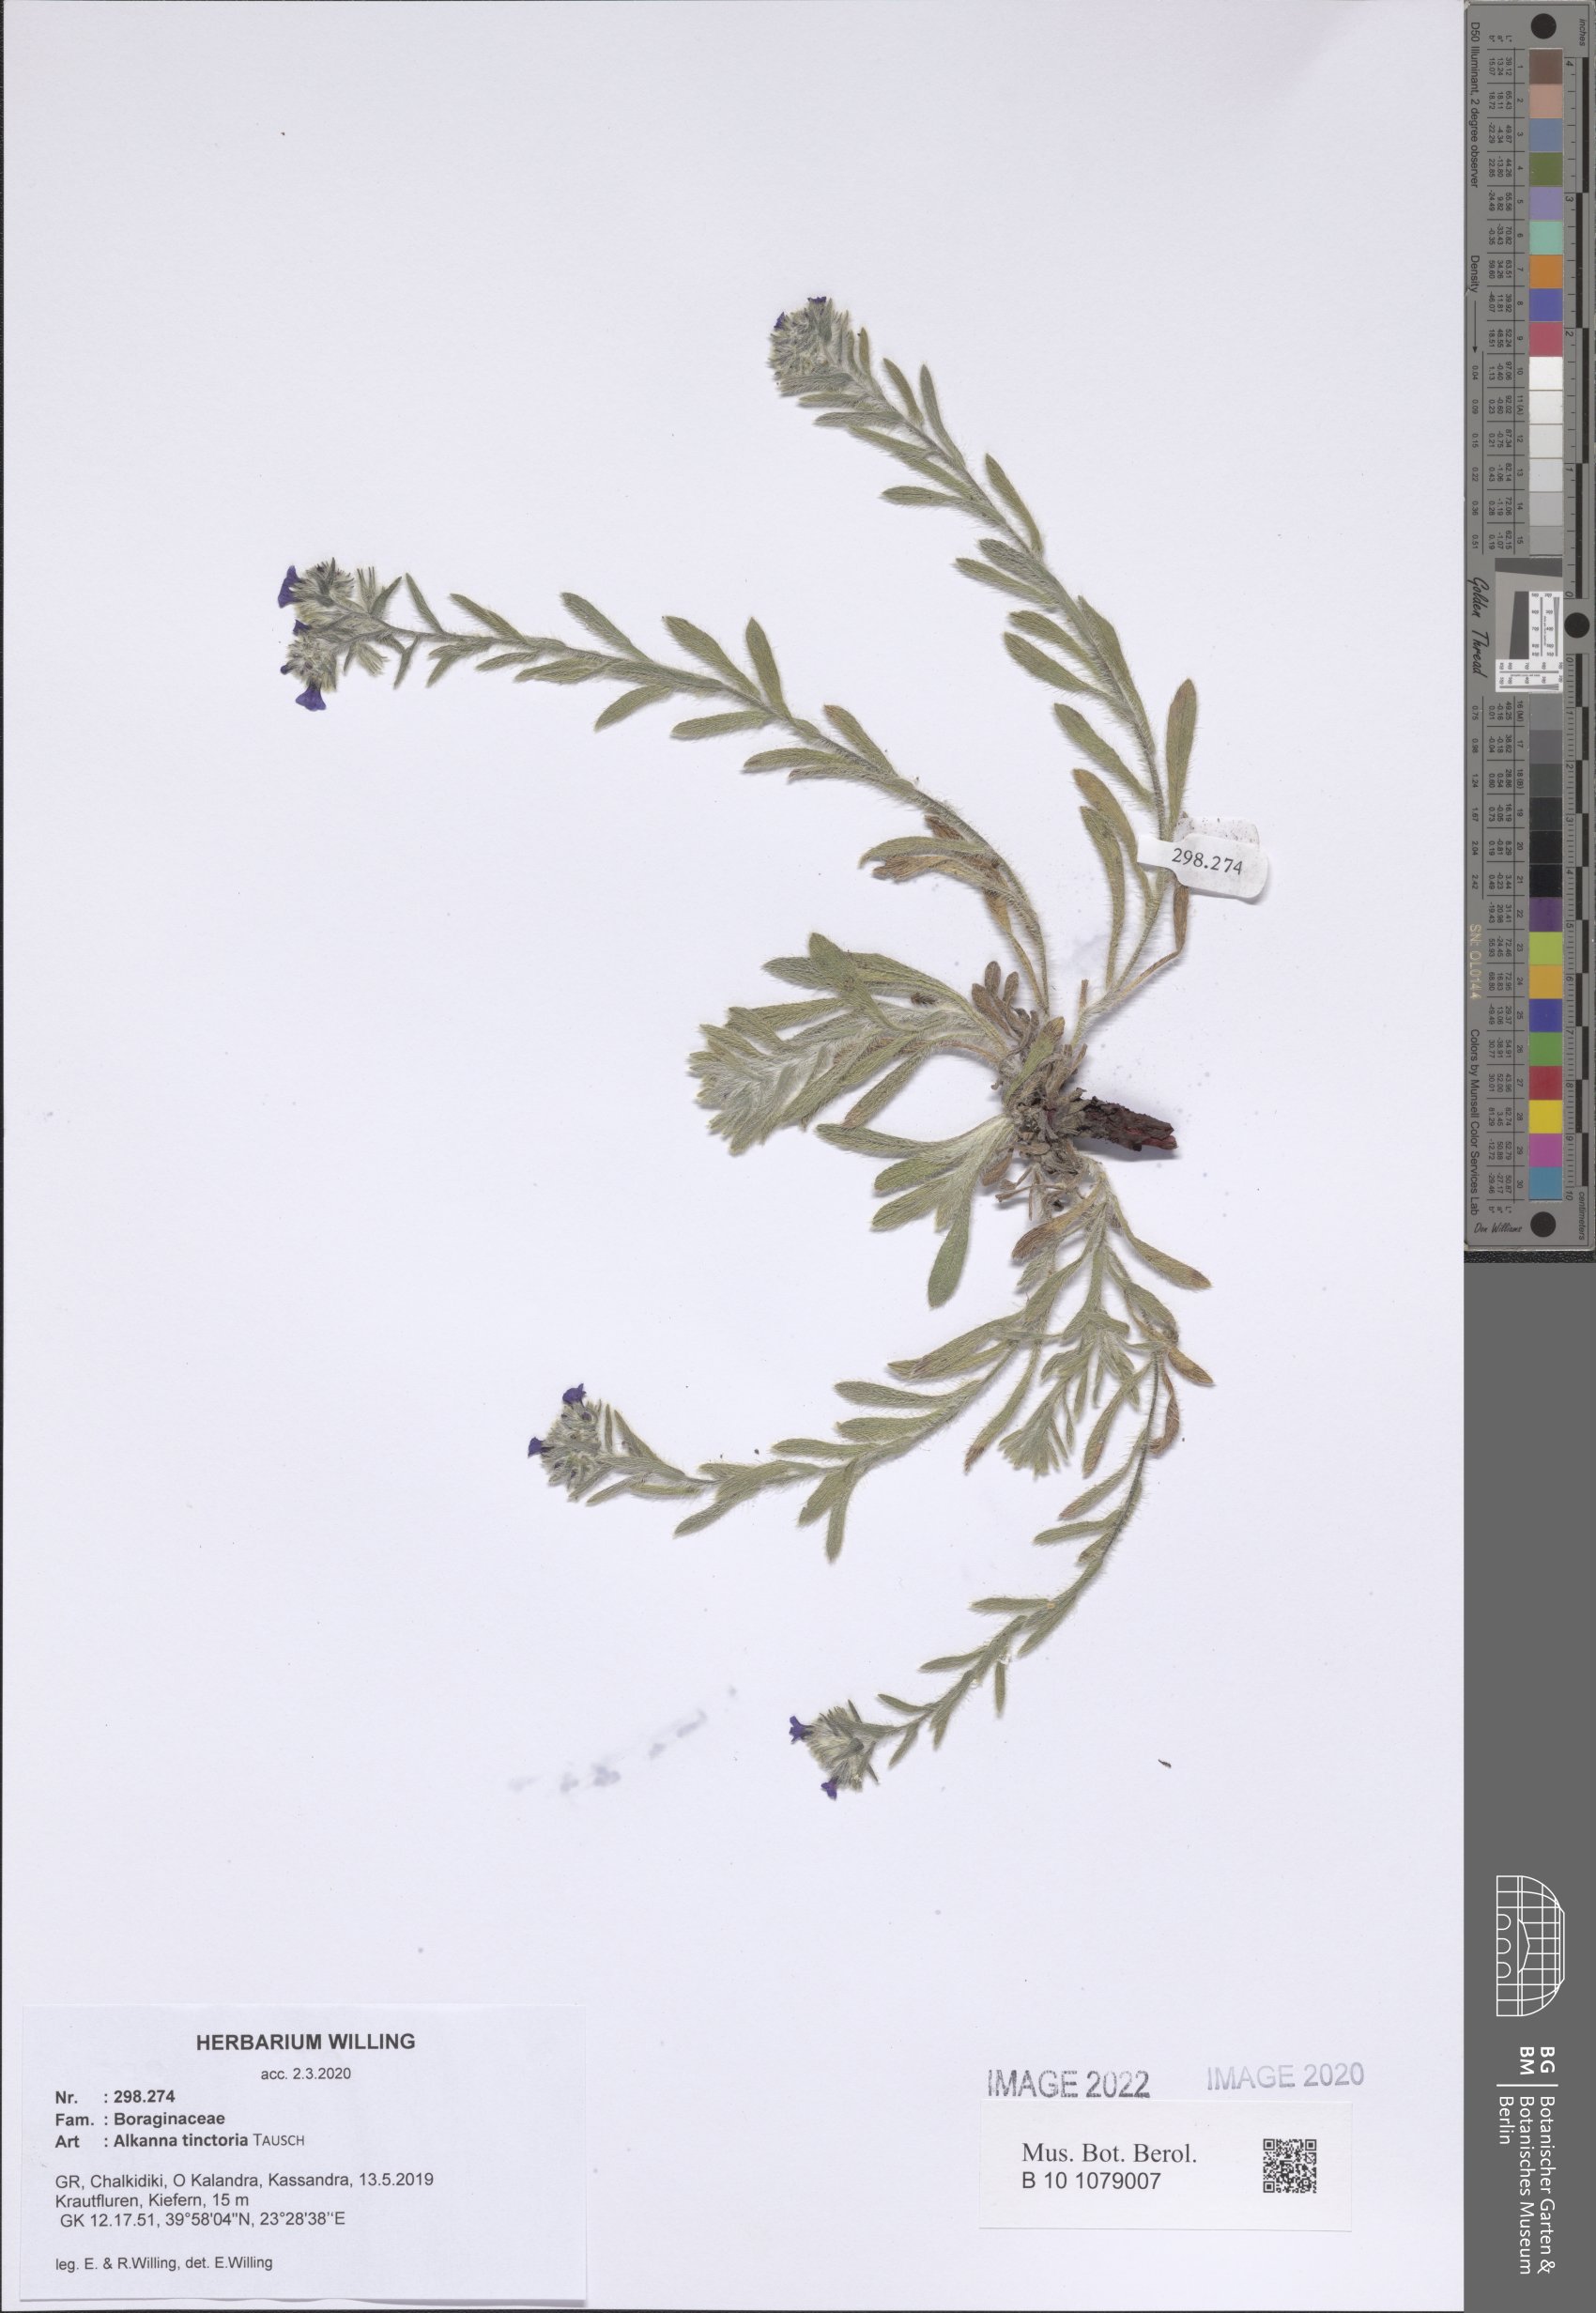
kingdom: Plantae
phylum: Tracheophyta
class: Magnoliopsida
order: Boraginales
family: Boraginaceae
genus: Alkanna
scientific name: Alkanna tinctoria
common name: Dyer's-alkanet
